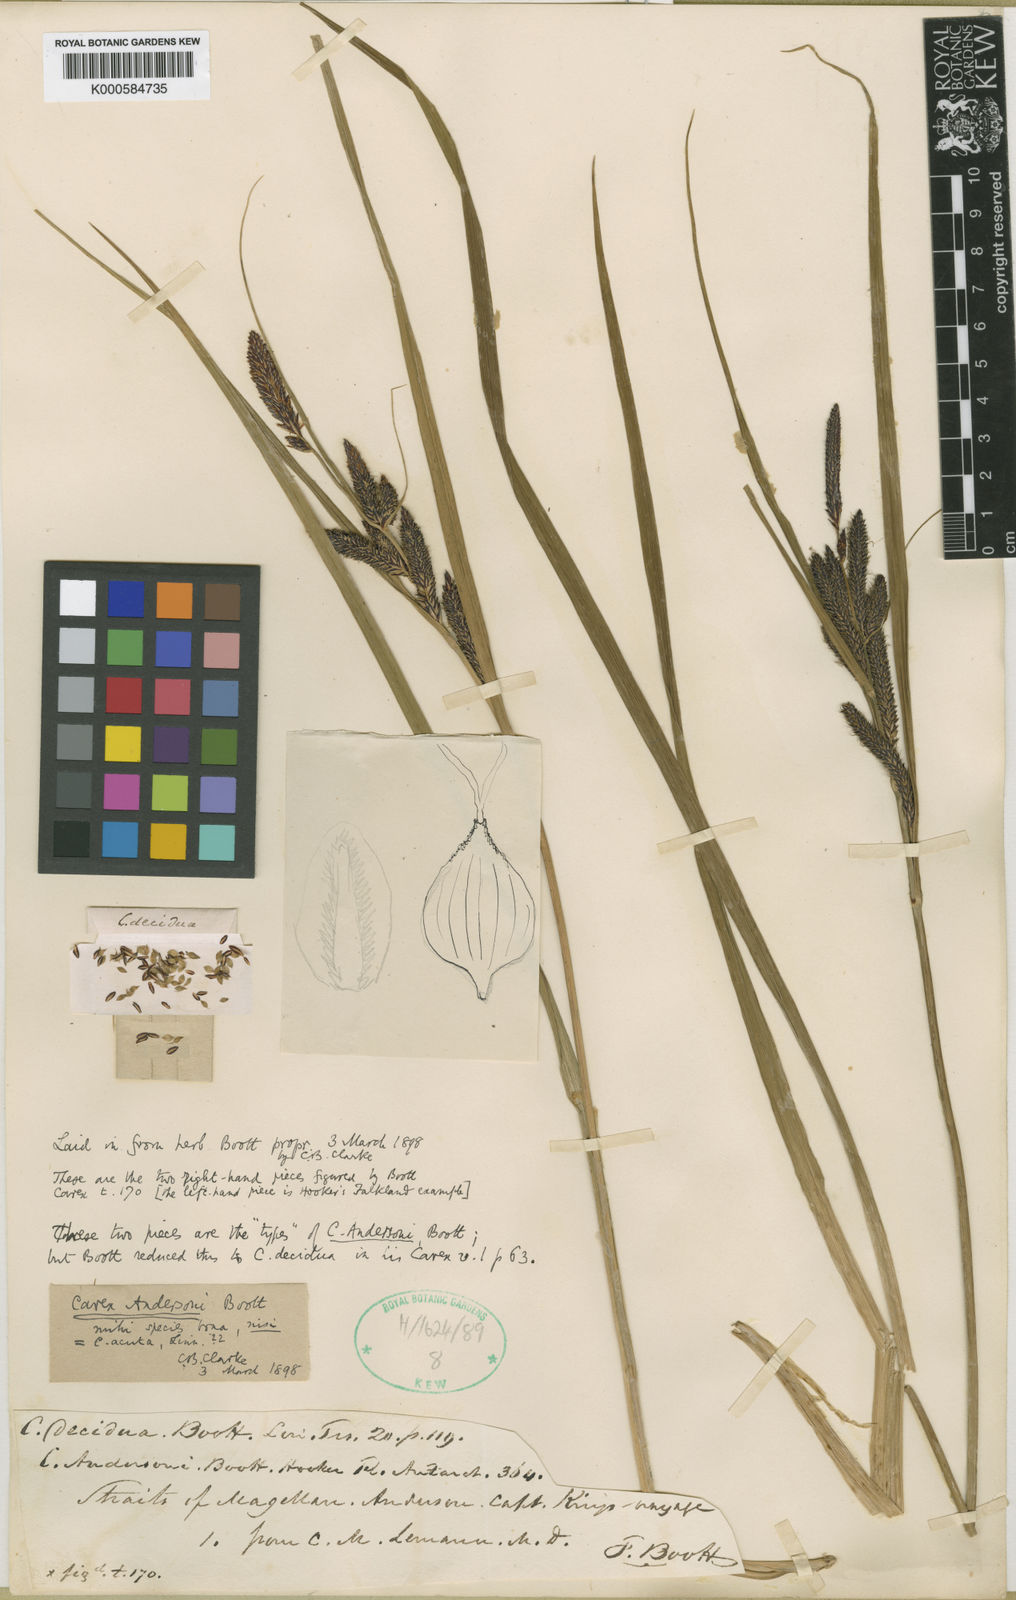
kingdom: Plantae
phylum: Tracheophyta
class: Liliopsida
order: Poales
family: Cyperaceae
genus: Carex
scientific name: Carex decidua
